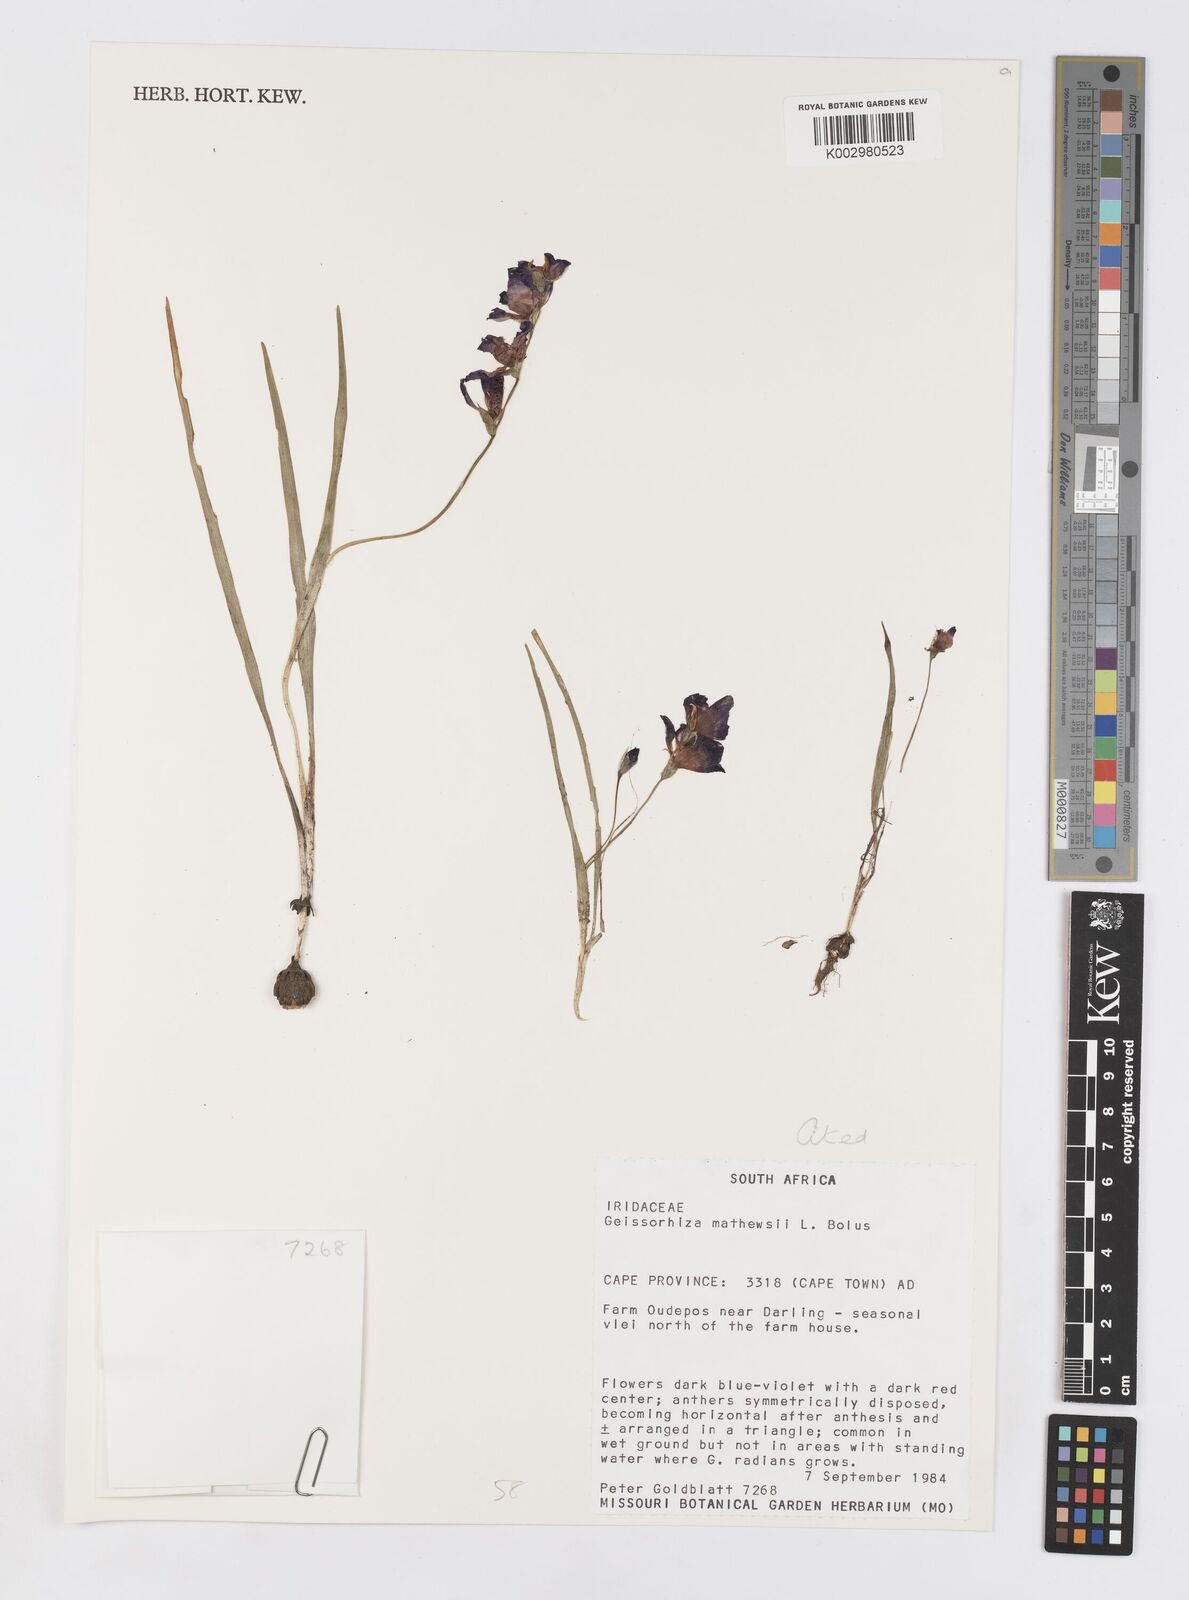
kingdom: Plantae
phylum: Tracheophyta
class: Liliopsida
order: Asparagales
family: Iridaceae
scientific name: Iridaceae
